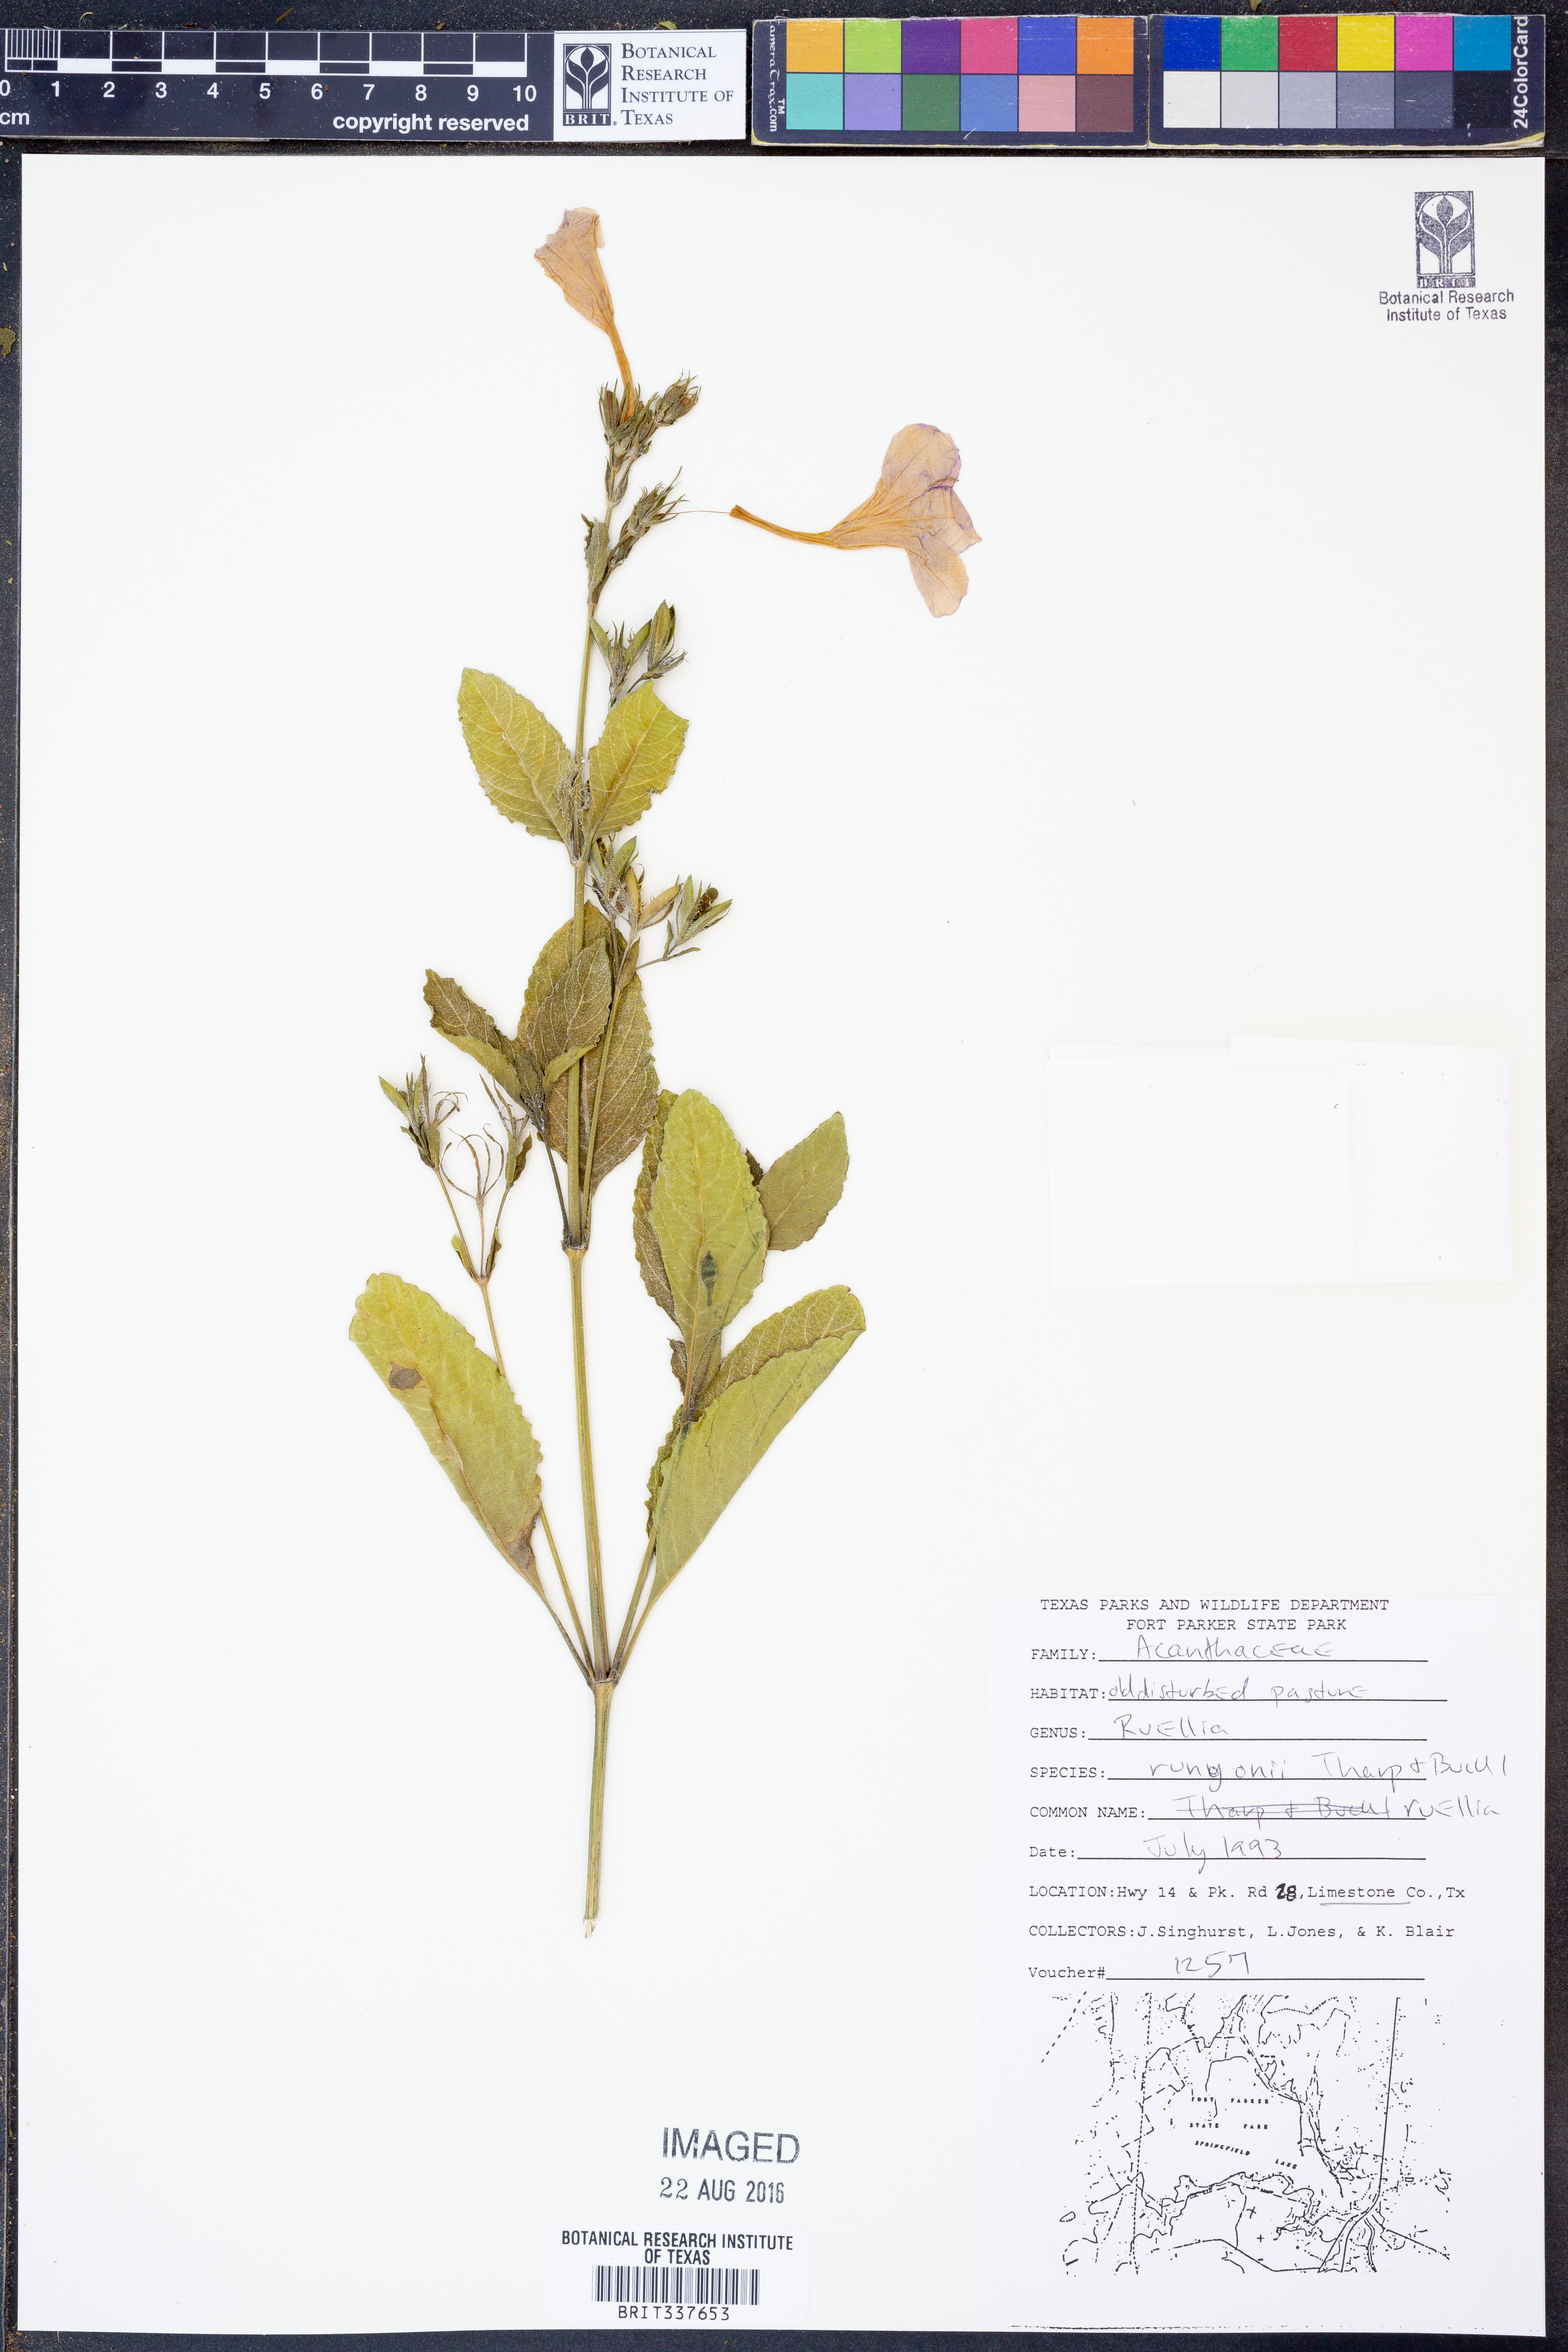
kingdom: Plantae
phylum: Tracheophyta
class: Magnoliopsida
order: Lamiales
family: Acanthaceae
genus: Ruellia
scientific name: Ruellia ciliatiflora
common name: Hairyflower wild petunia
